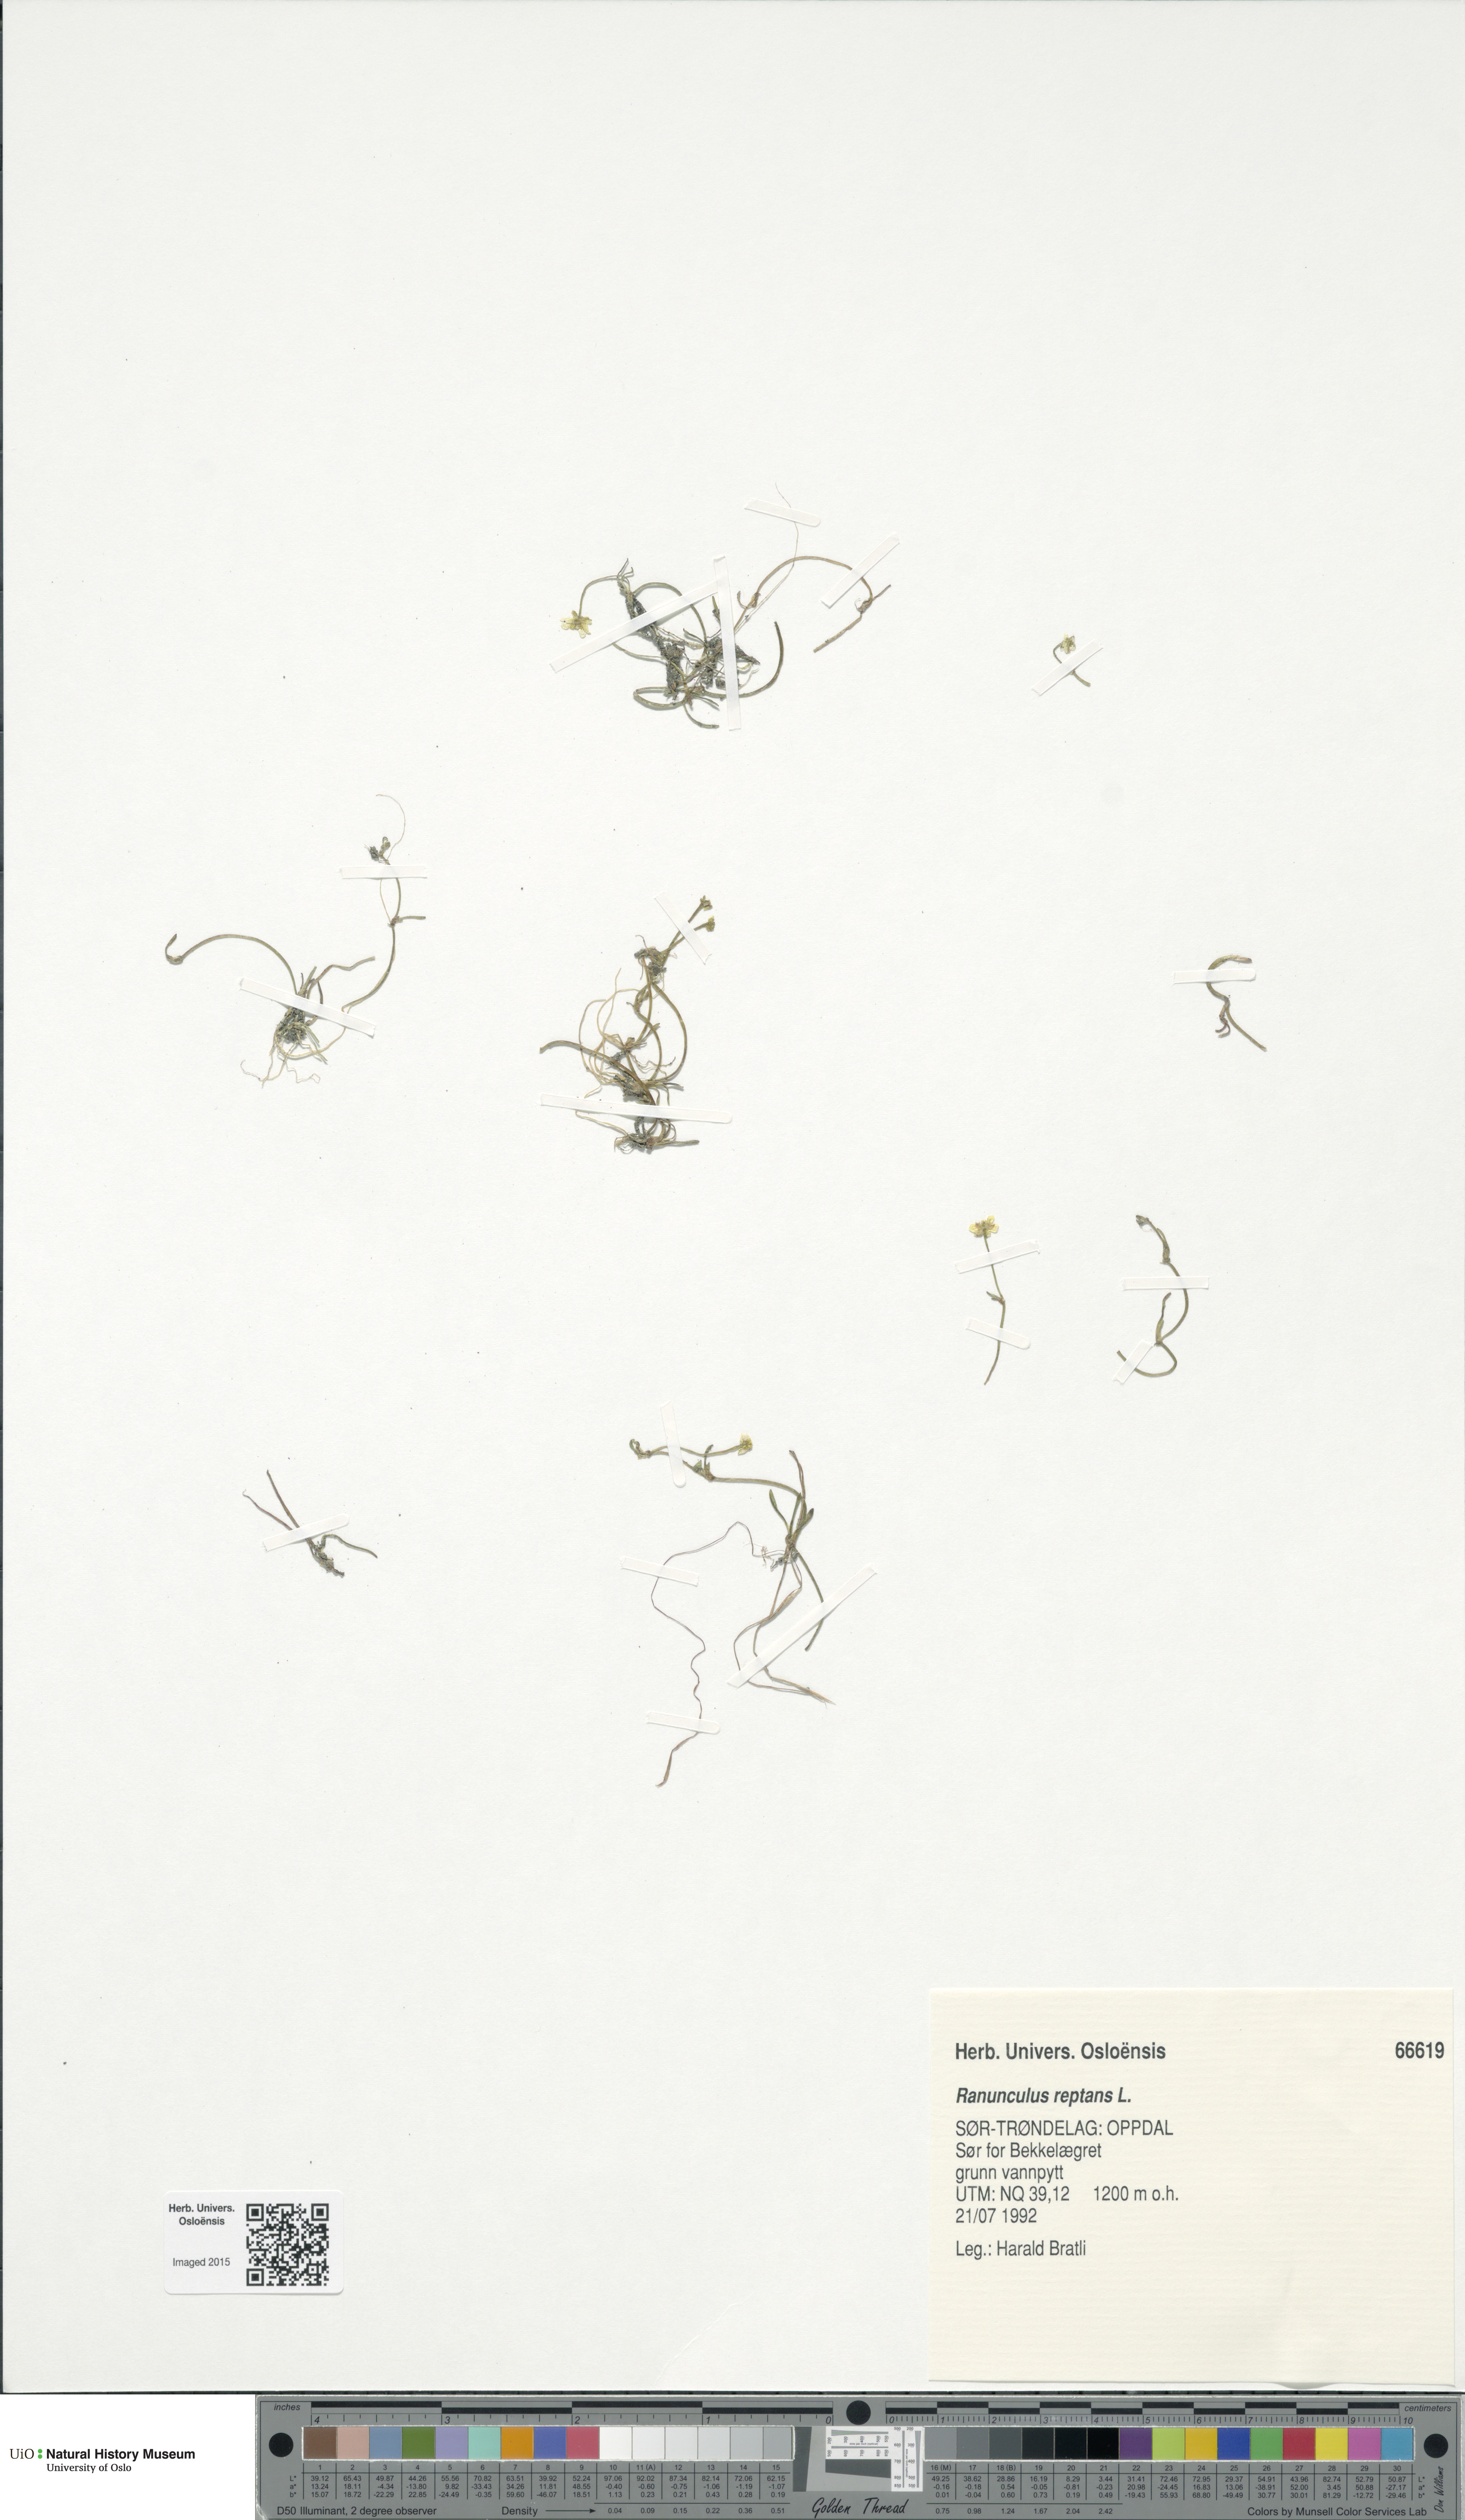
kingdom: Plantae
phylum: Tracheophyta
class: Magnoliopsida
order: Ranunculales
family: Ranunculaceae
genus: Ranunculus
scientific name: Ranunculus reptans
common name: Creeping spearwort
